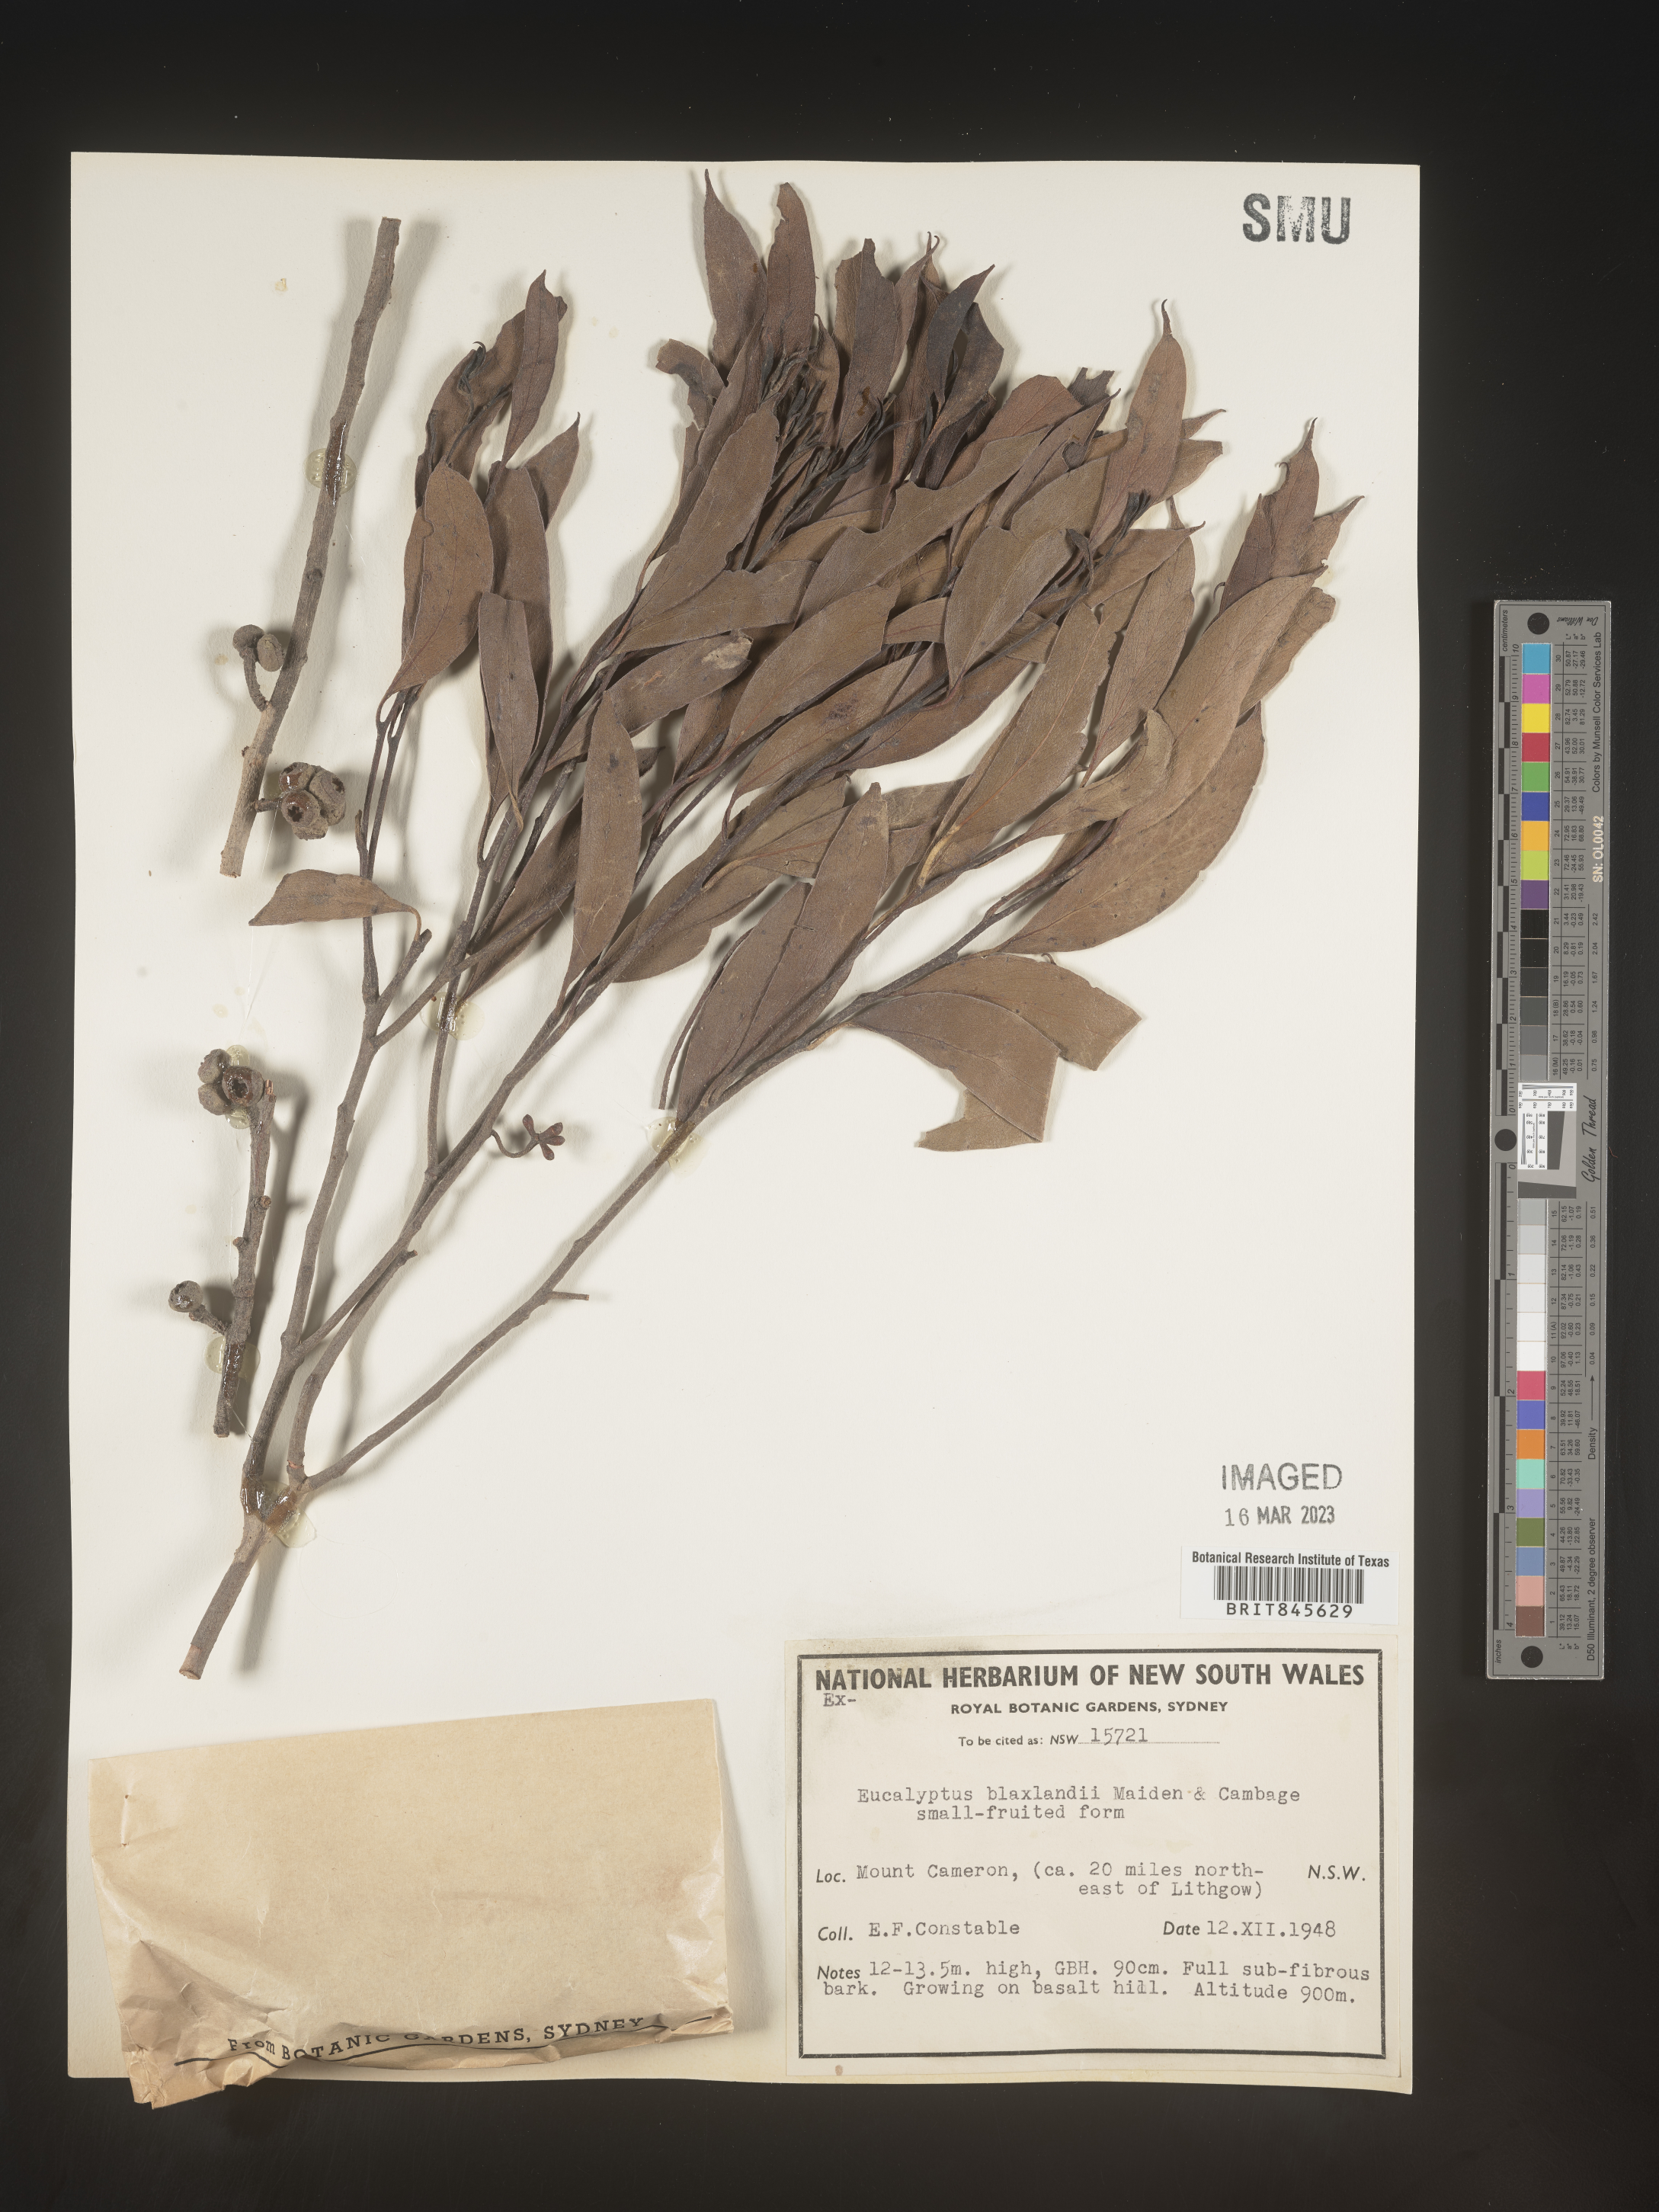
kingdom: Plantae
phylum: Tracheophyta
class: Magnoliopsida
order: Myrtales
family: Myrtaceae
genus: Eucalyptus
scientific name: Eucalyptus
